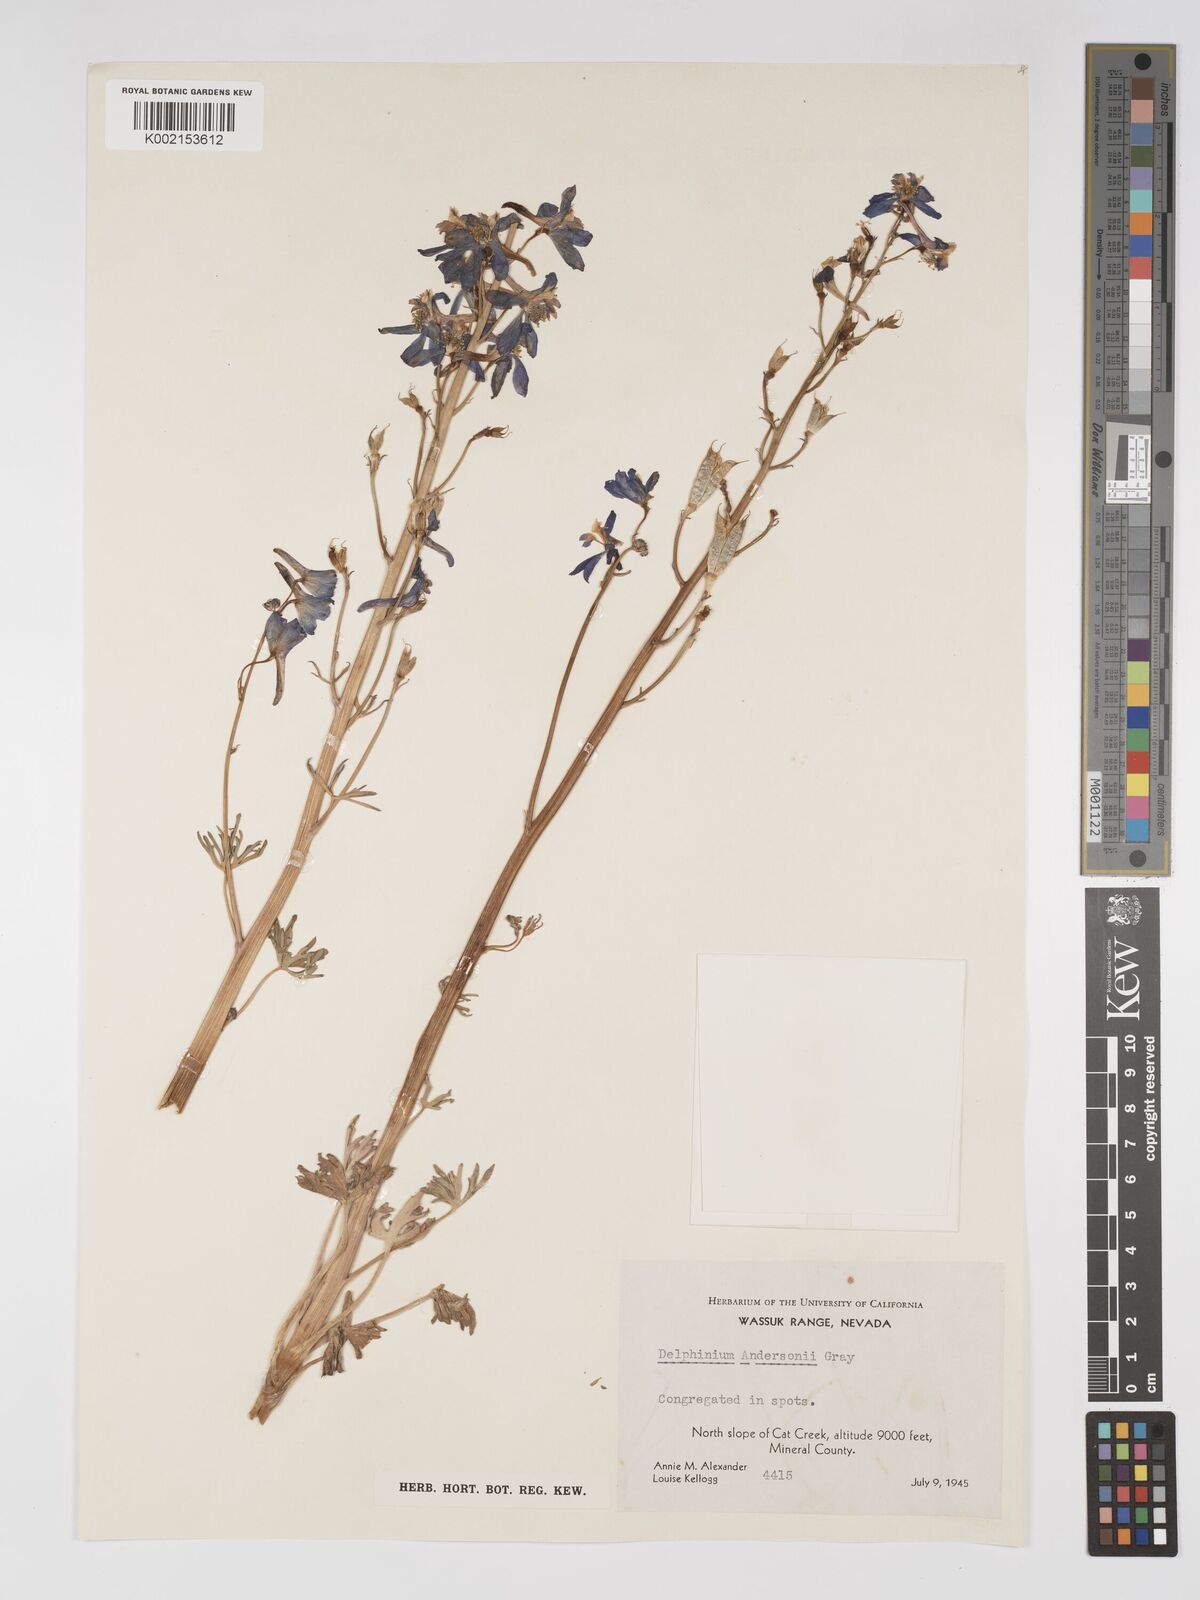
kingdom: Plantae
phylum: Tracheophyta
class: Magnoliopsida
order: Ranunculales
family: Ranunculaceae
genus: Delphinium
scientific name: Delphinium andersonii
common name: Anderson's larkspur
